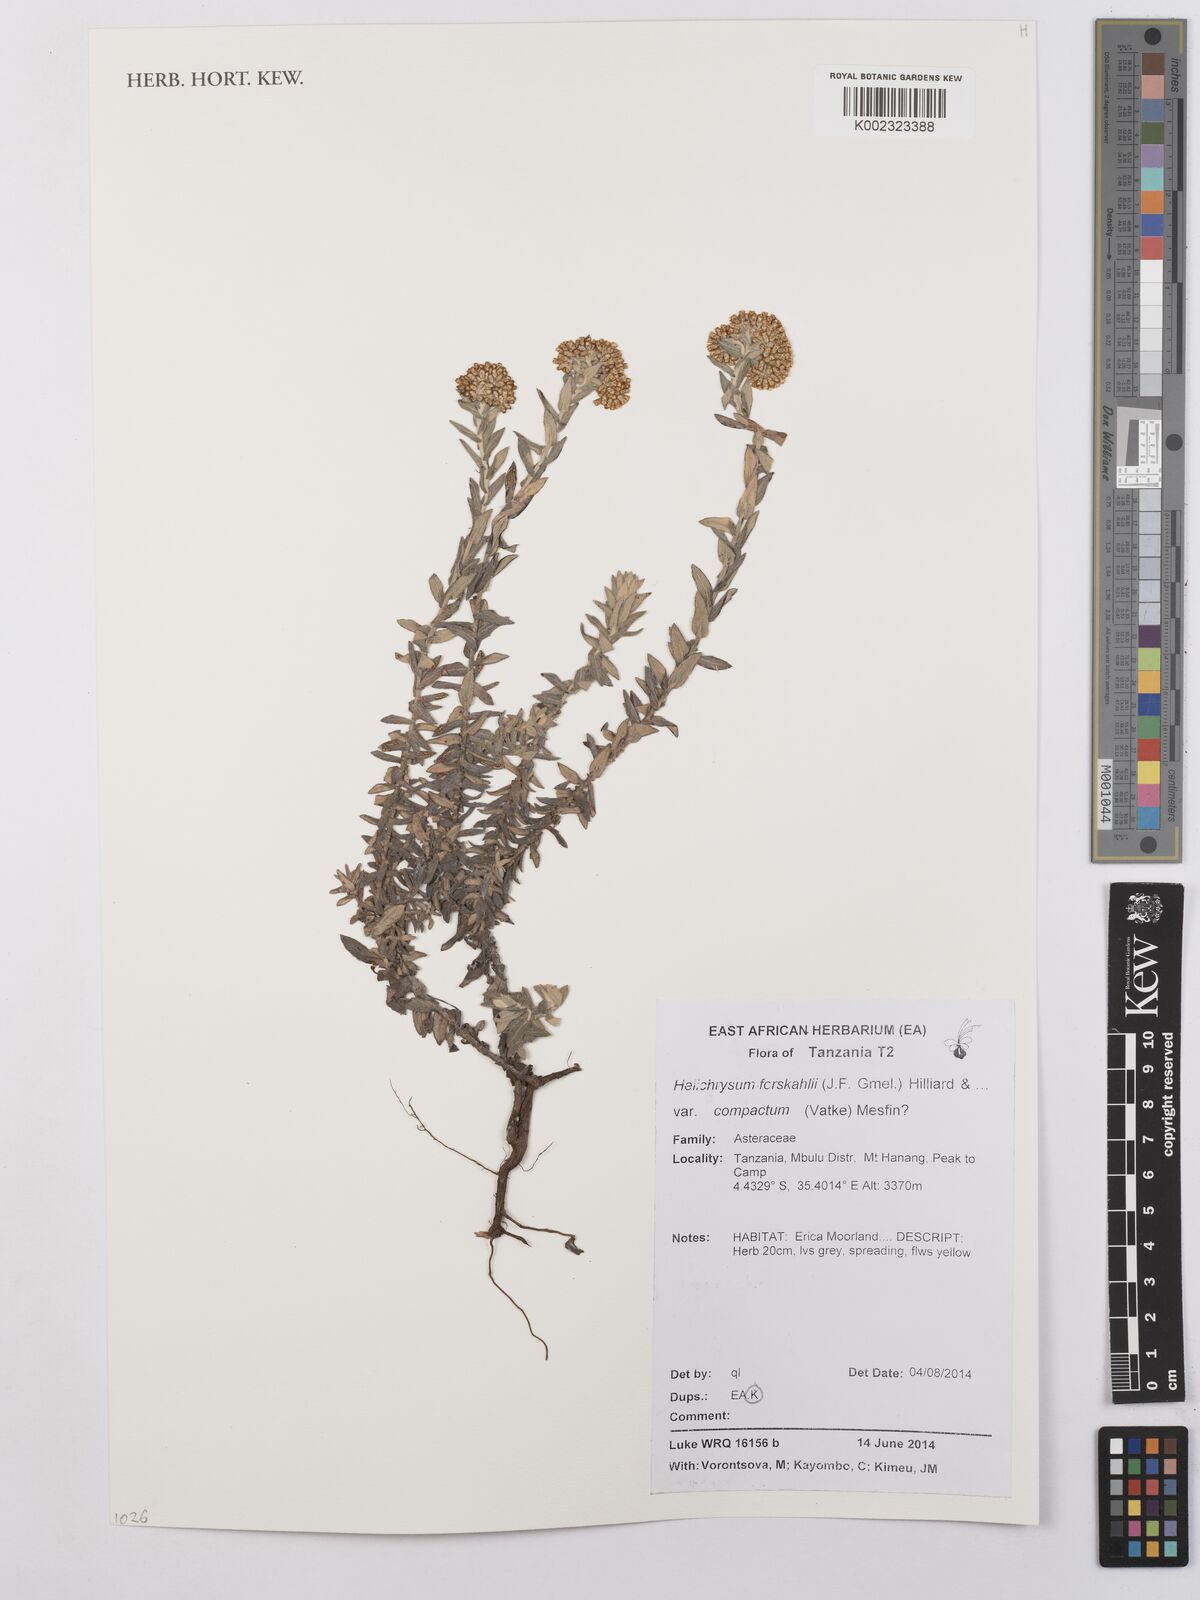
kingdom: Plantae
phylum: Tracheophyta
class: Magnoliopsida
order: Asterales
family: Asteraceae
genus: Helichrysum
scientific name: Helichrysum forskahlii
